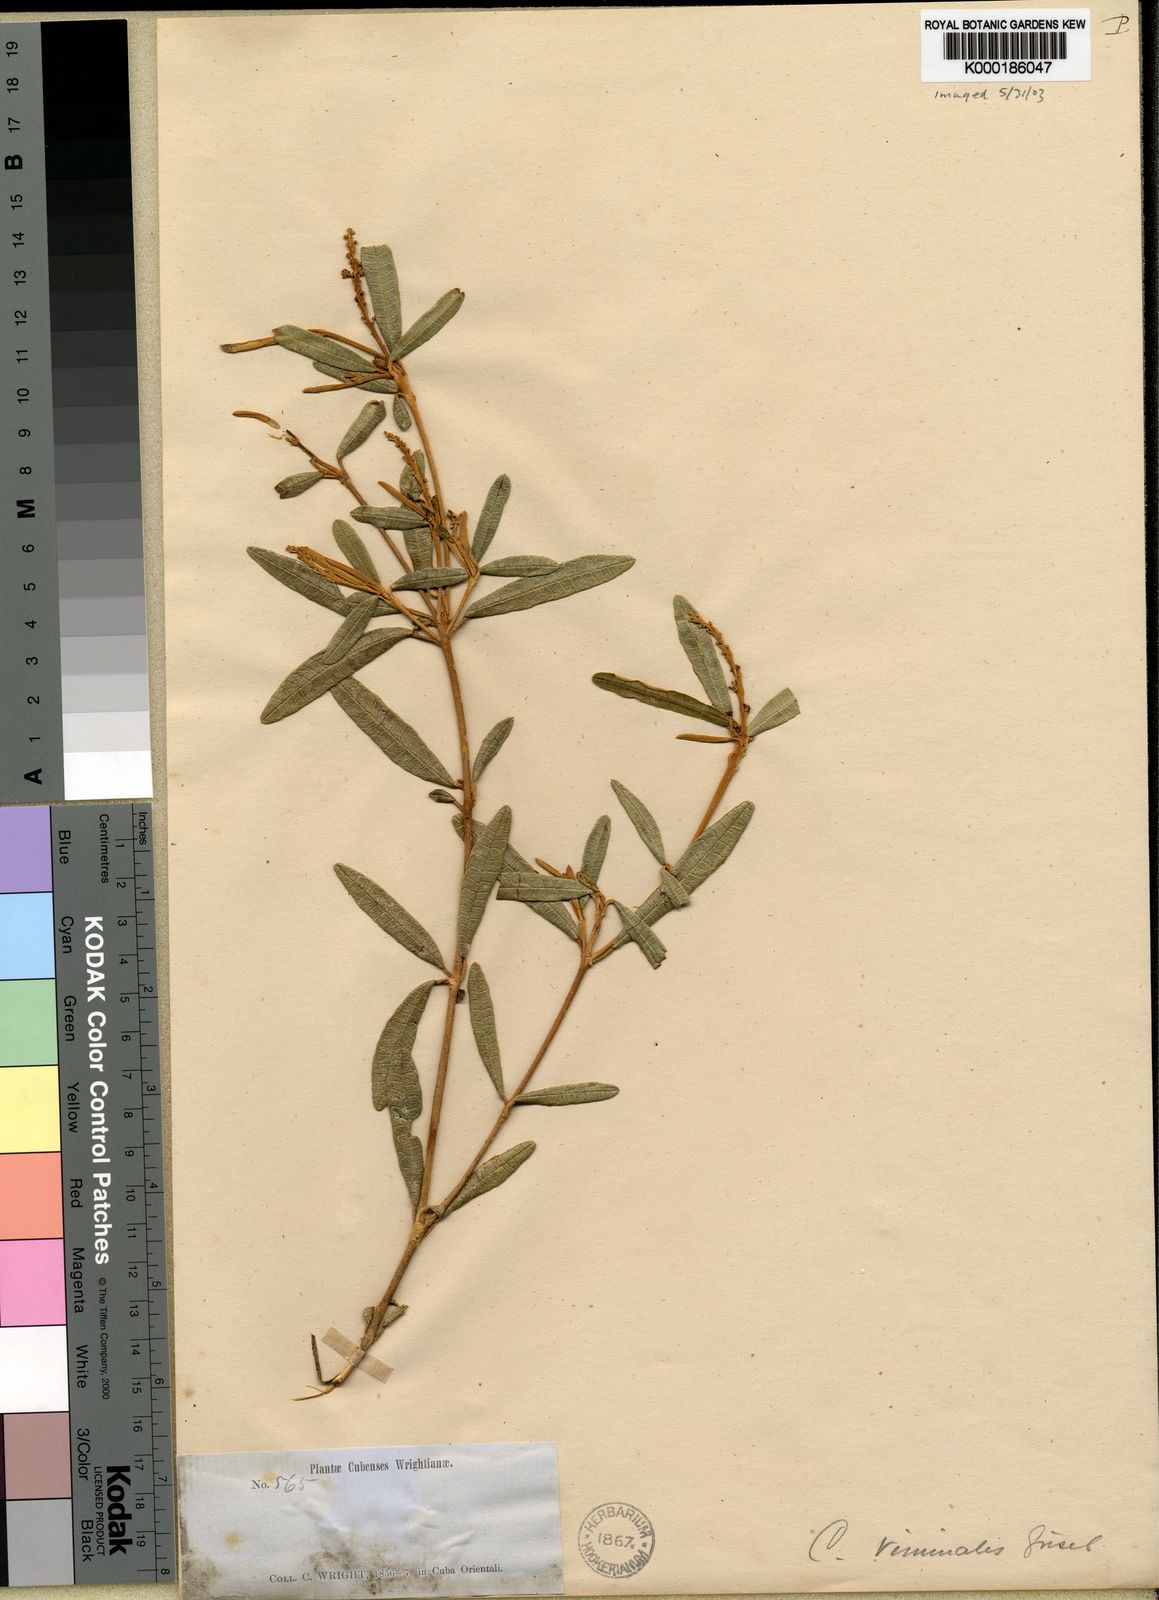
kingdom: Plantae
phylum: Tracheophyta
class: Magnoliopsida
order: Malpighiales
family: Euphorbiaceae
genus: Croton
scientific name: Croton viminalis
